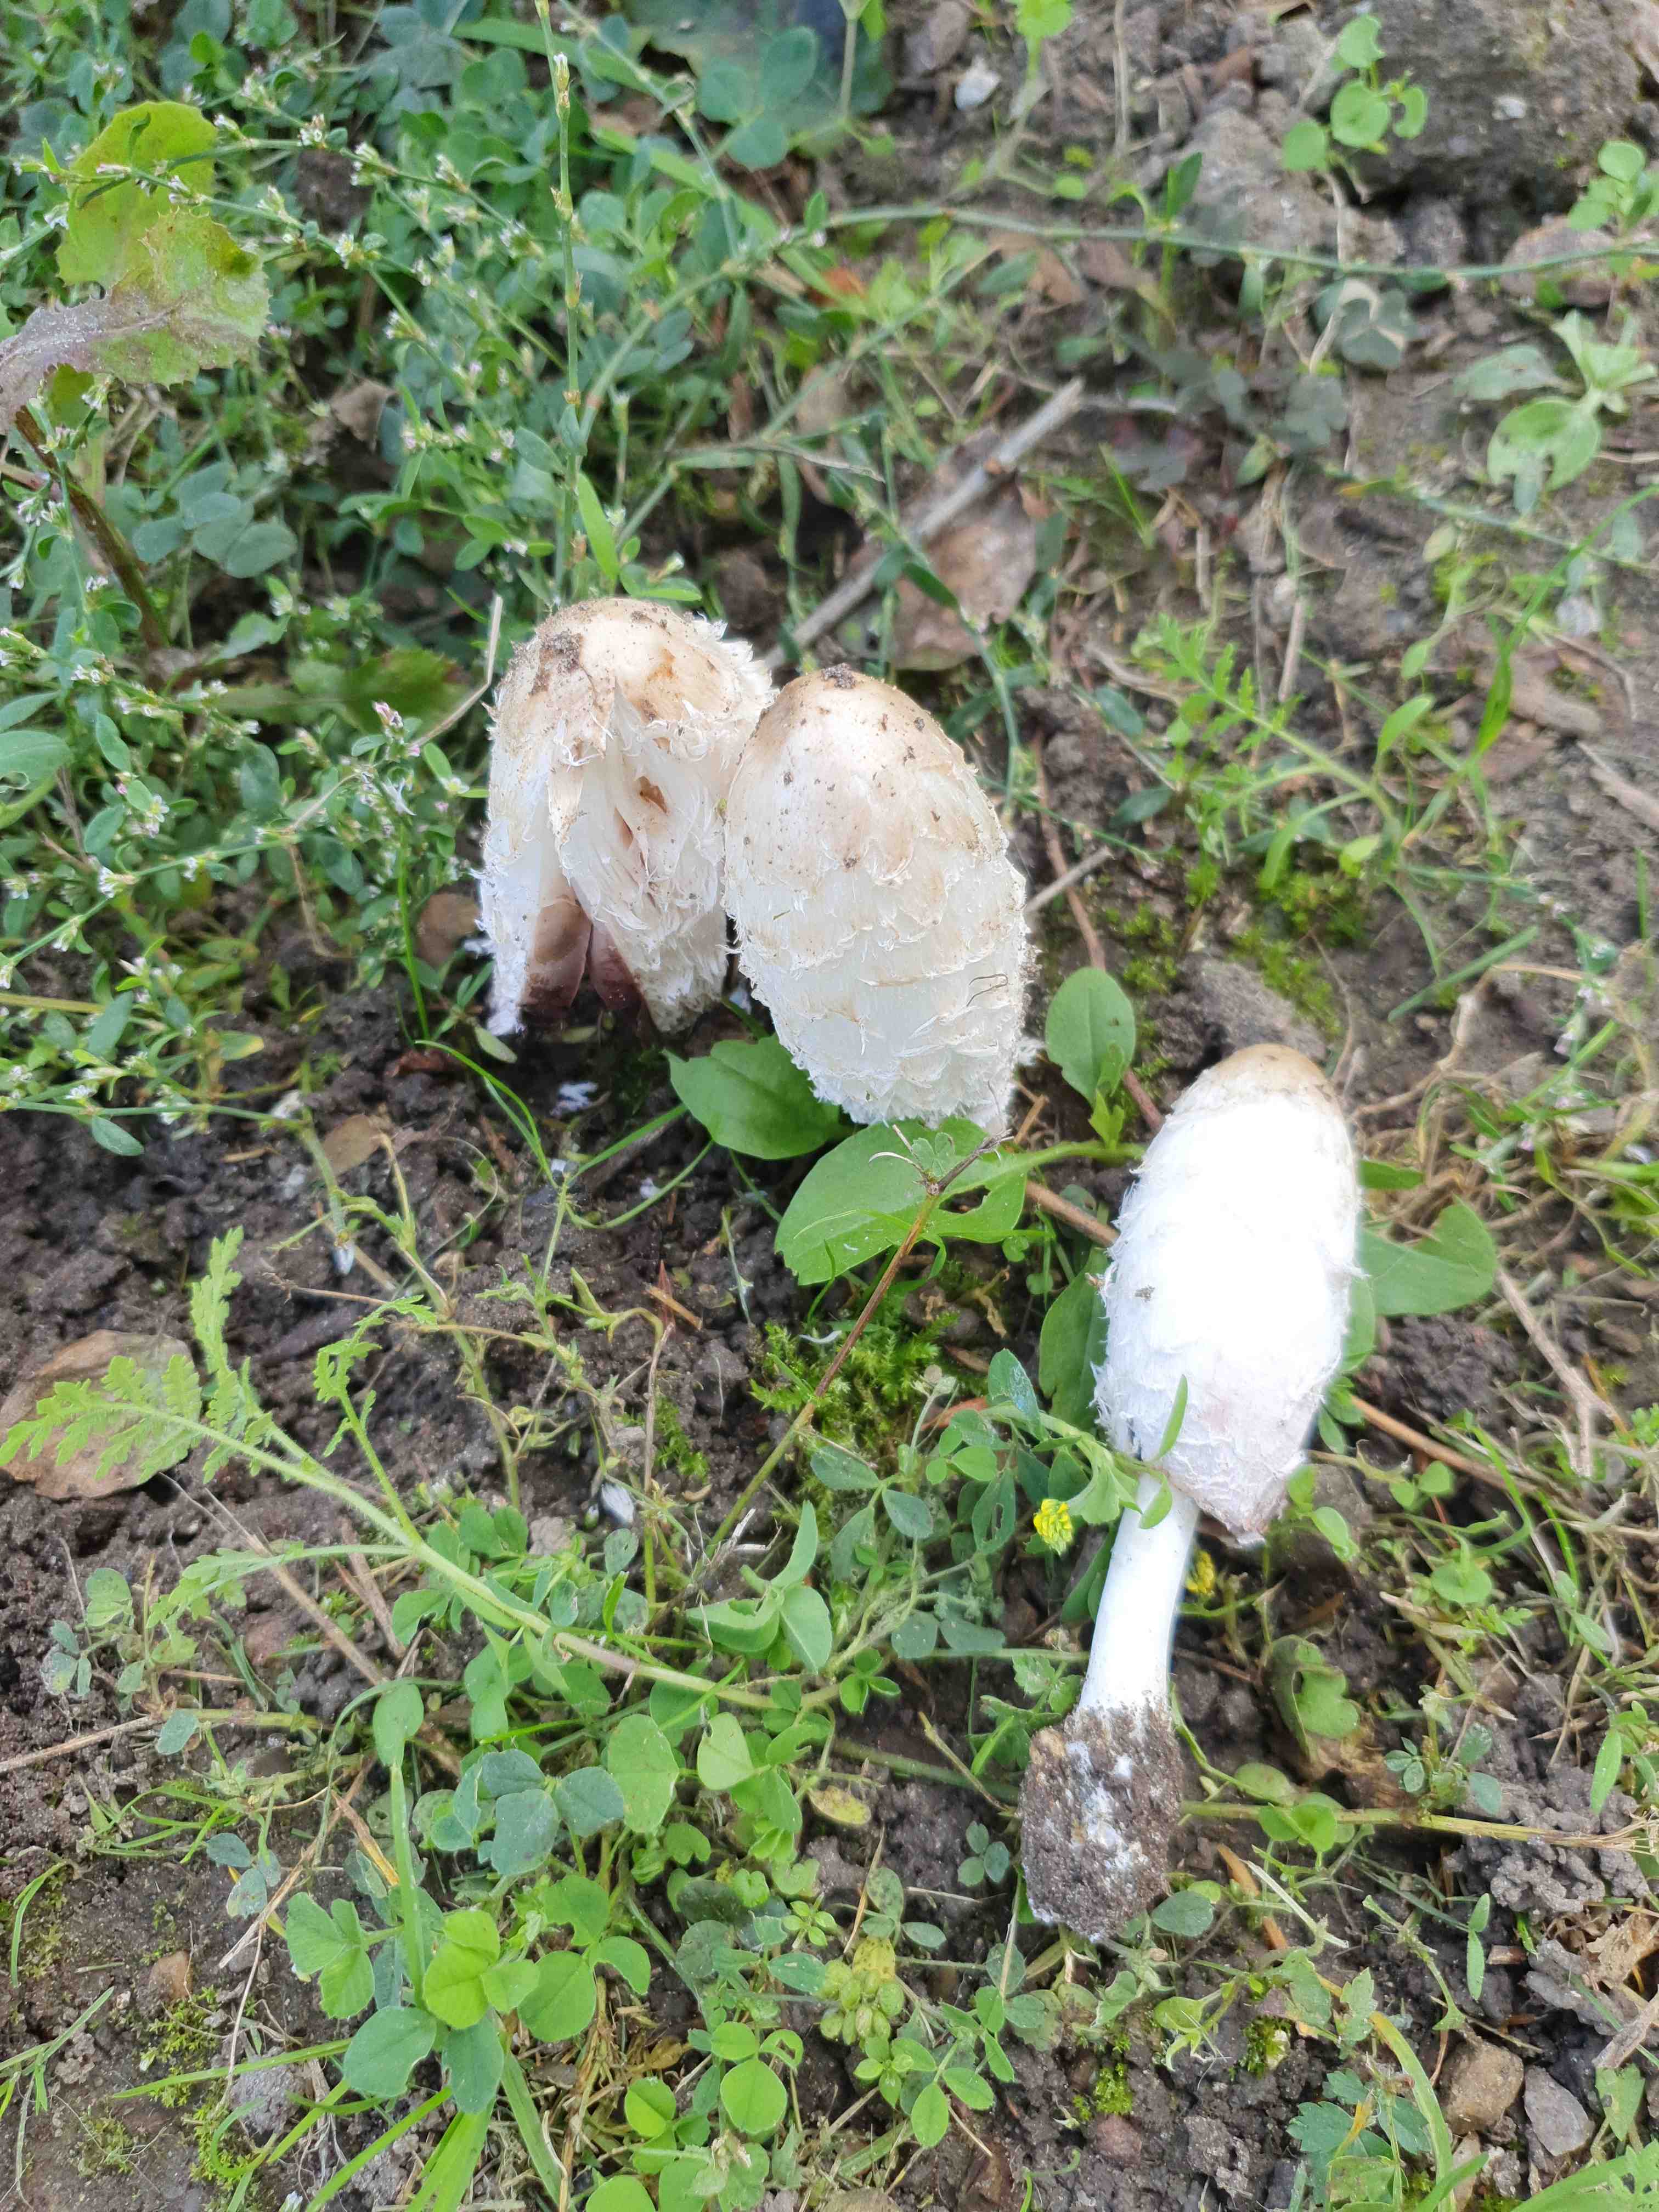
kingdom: Fungi
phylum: Basidiomycota
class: Agaricomycetes
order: Agaricales
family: Agaricaceae
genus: Coprinus
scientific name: Coprinus comatus
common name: stor parykhat
